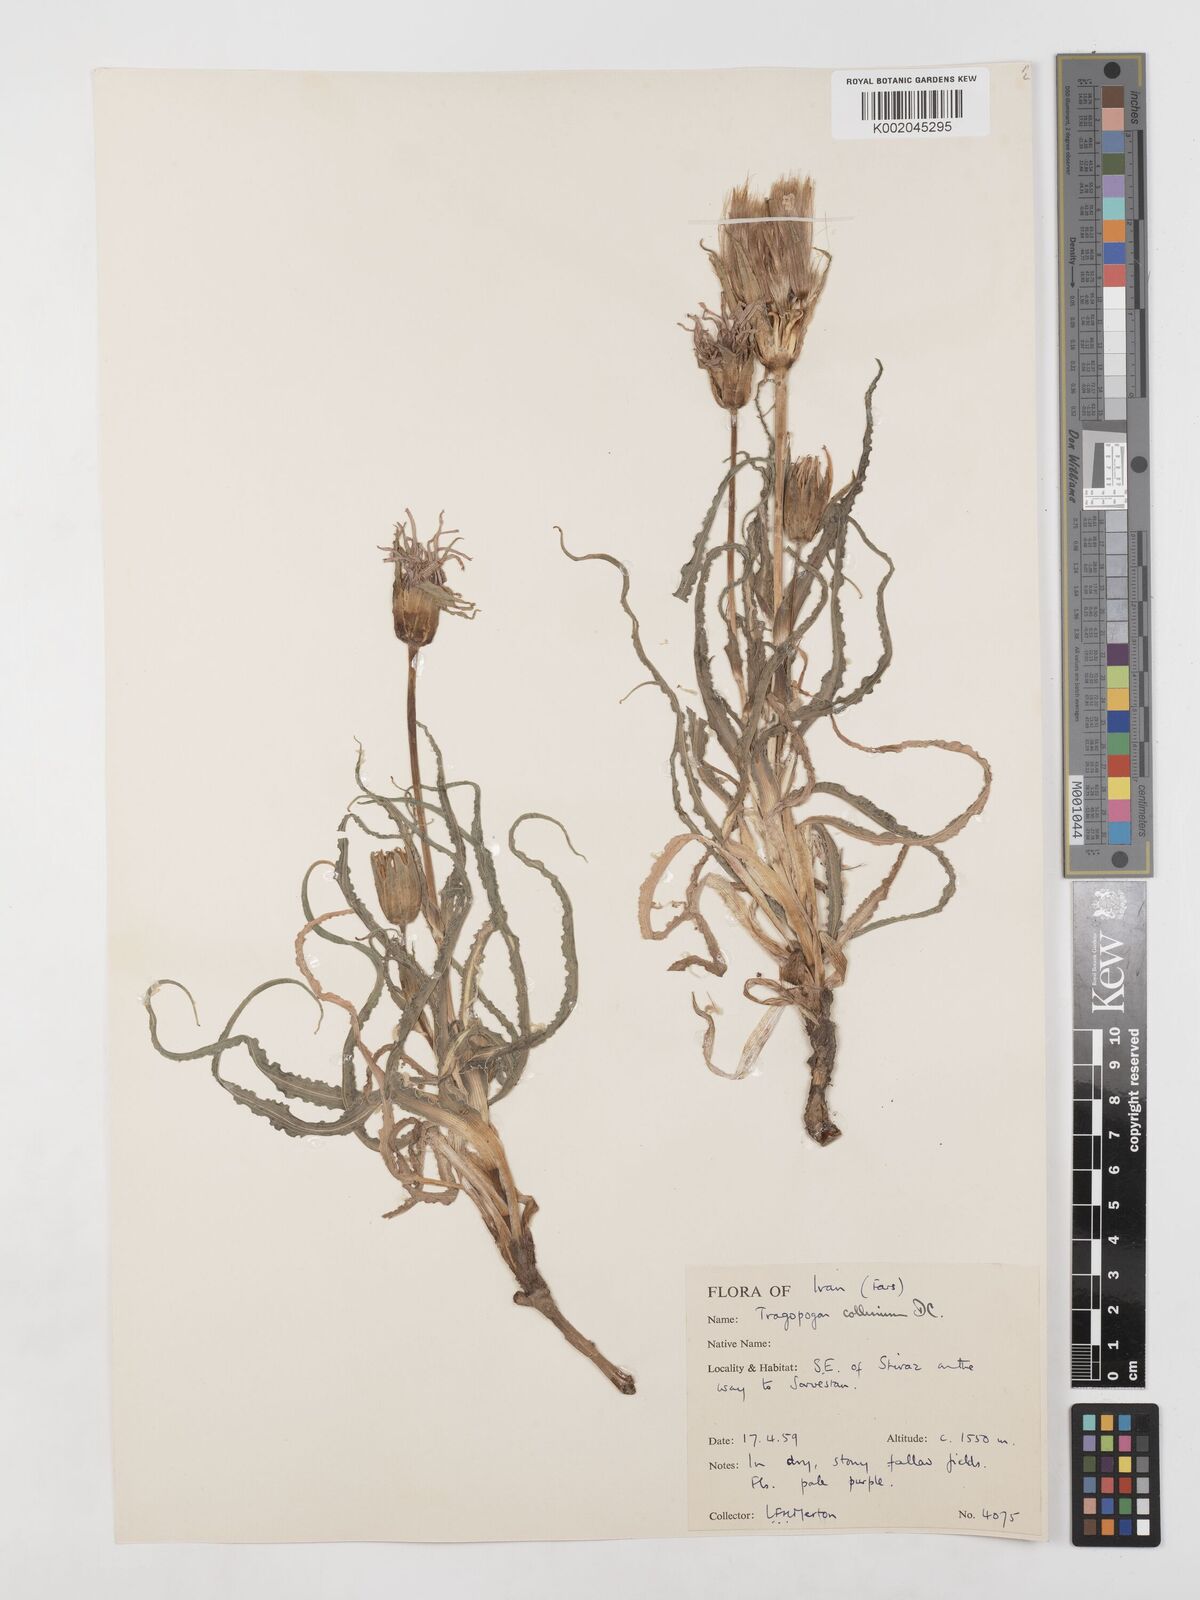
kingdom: Plantae
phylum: Tracheophyta
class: Magnoliopsida
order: Asterales
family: Asteraceae
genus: Tragopogon
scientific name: Tragopogon collinus
